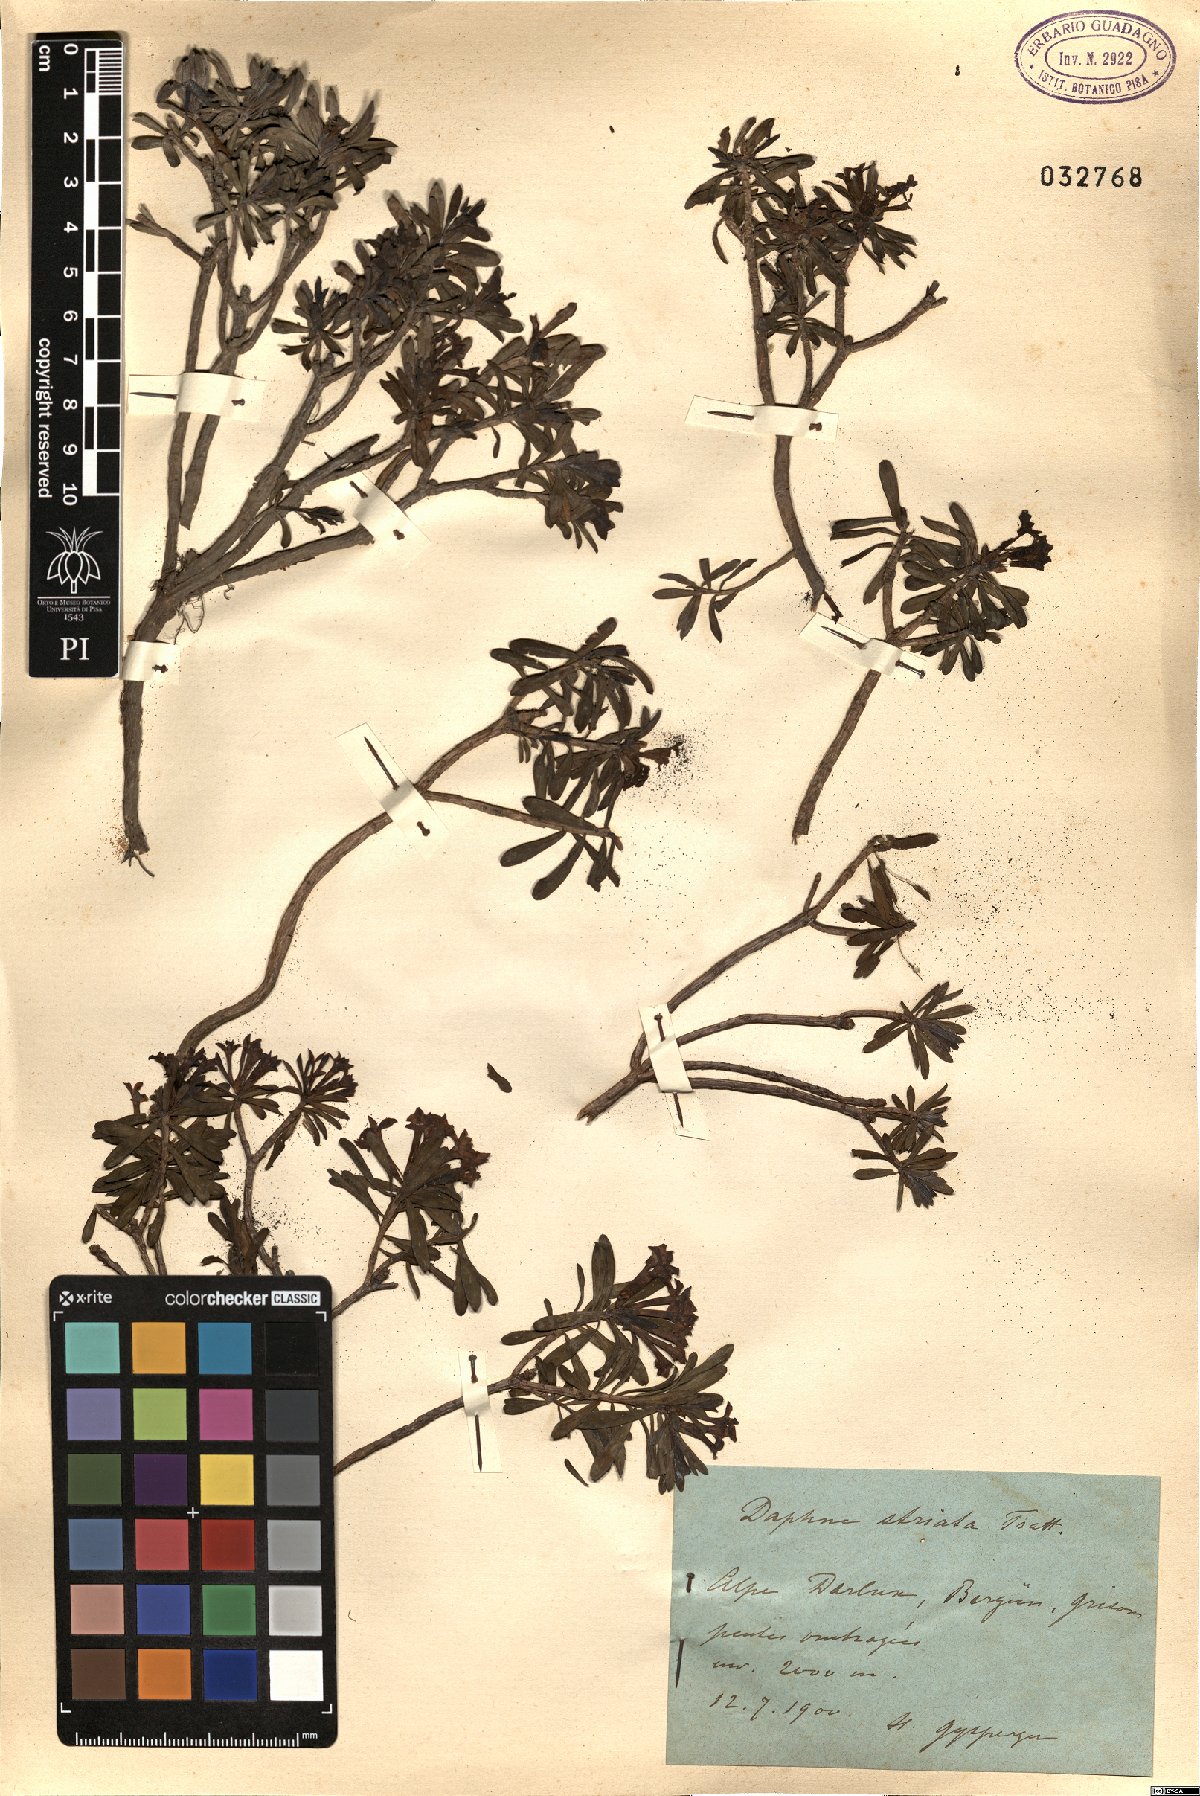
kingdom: Plantae
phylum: Tracheophyta
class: Magnoliopsida
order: Malvales
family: Thymelaeaceae
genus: Daphne
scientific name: Daphne striata
